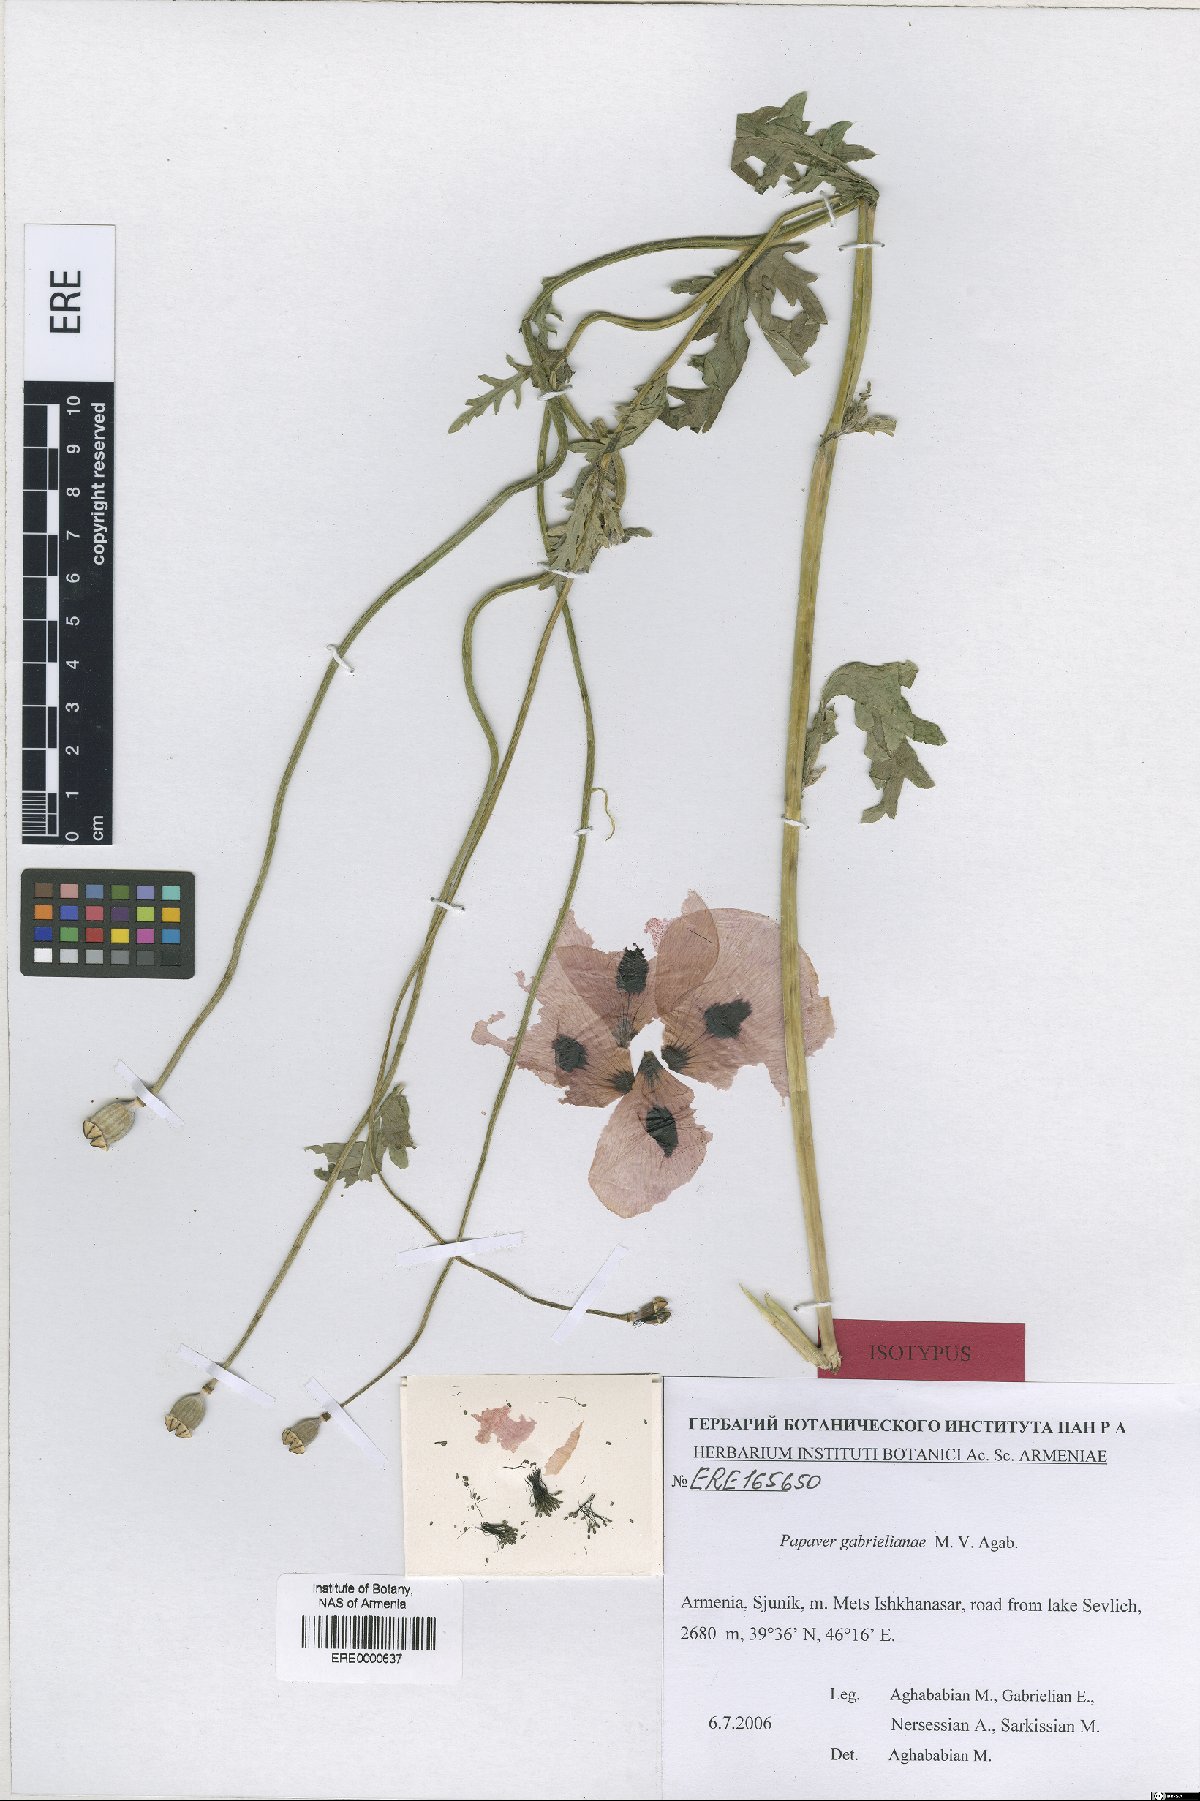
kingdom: Plantae
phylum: Tracheophyta
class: Magnoliopsida
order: Ranunculales
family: Papaveraceae
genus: Papaver
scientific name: Papaver rhoeas
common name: Corn poppy
